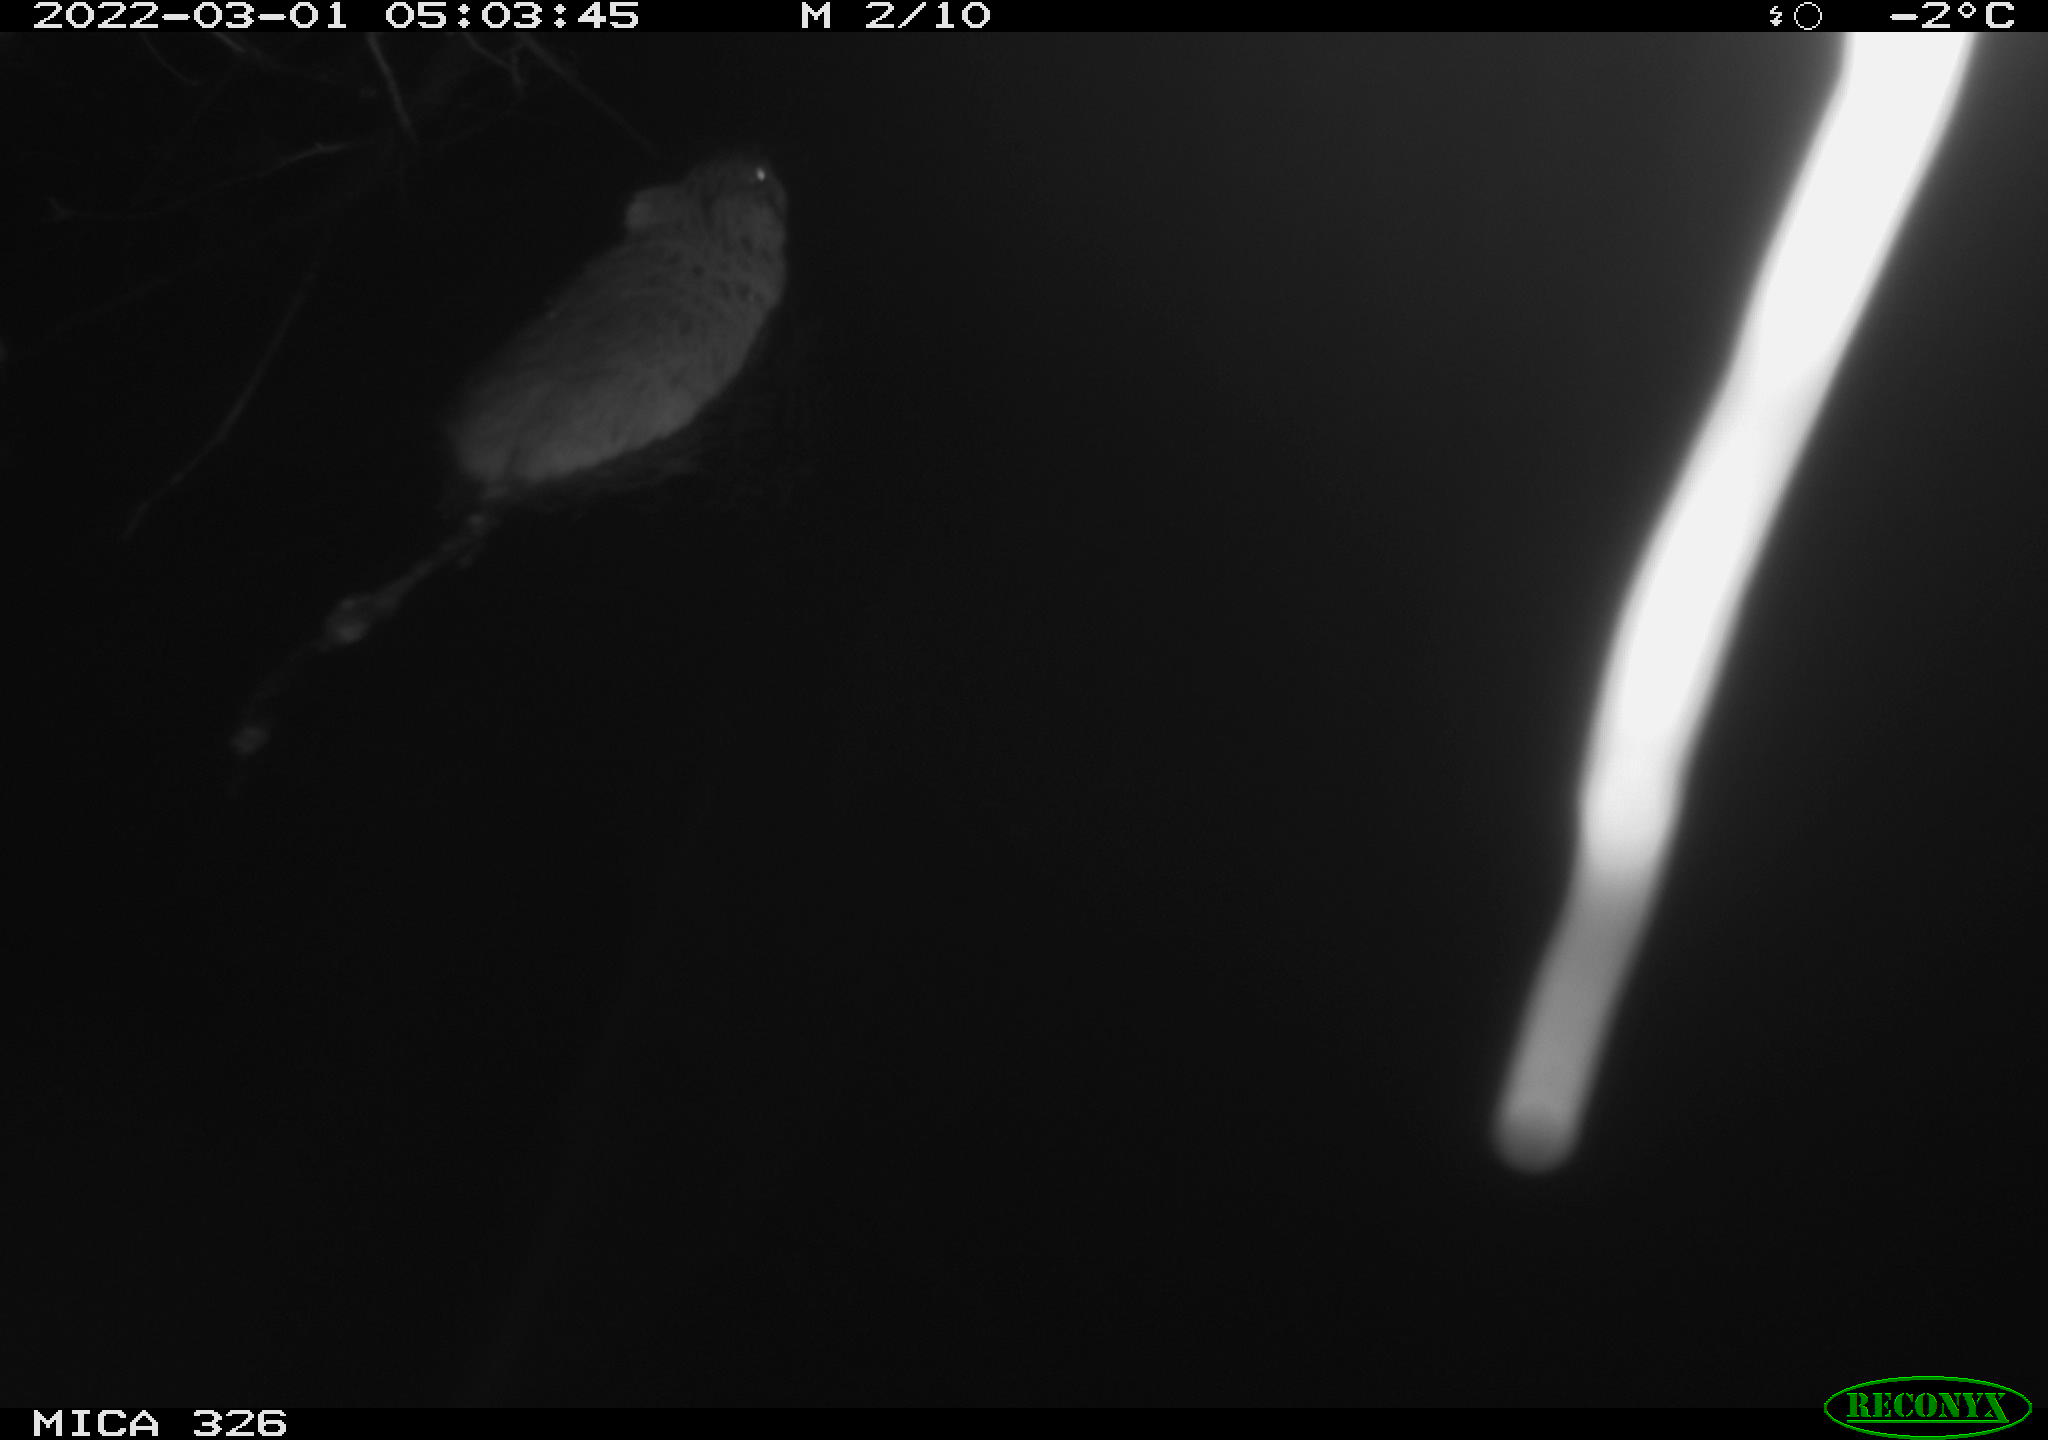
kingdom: Animalia
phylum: Chordata
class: Mammalia
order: Rodentia
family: Cricetidae
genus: Ondatra
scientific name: Ondatra zibethicus
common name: Muskrat
